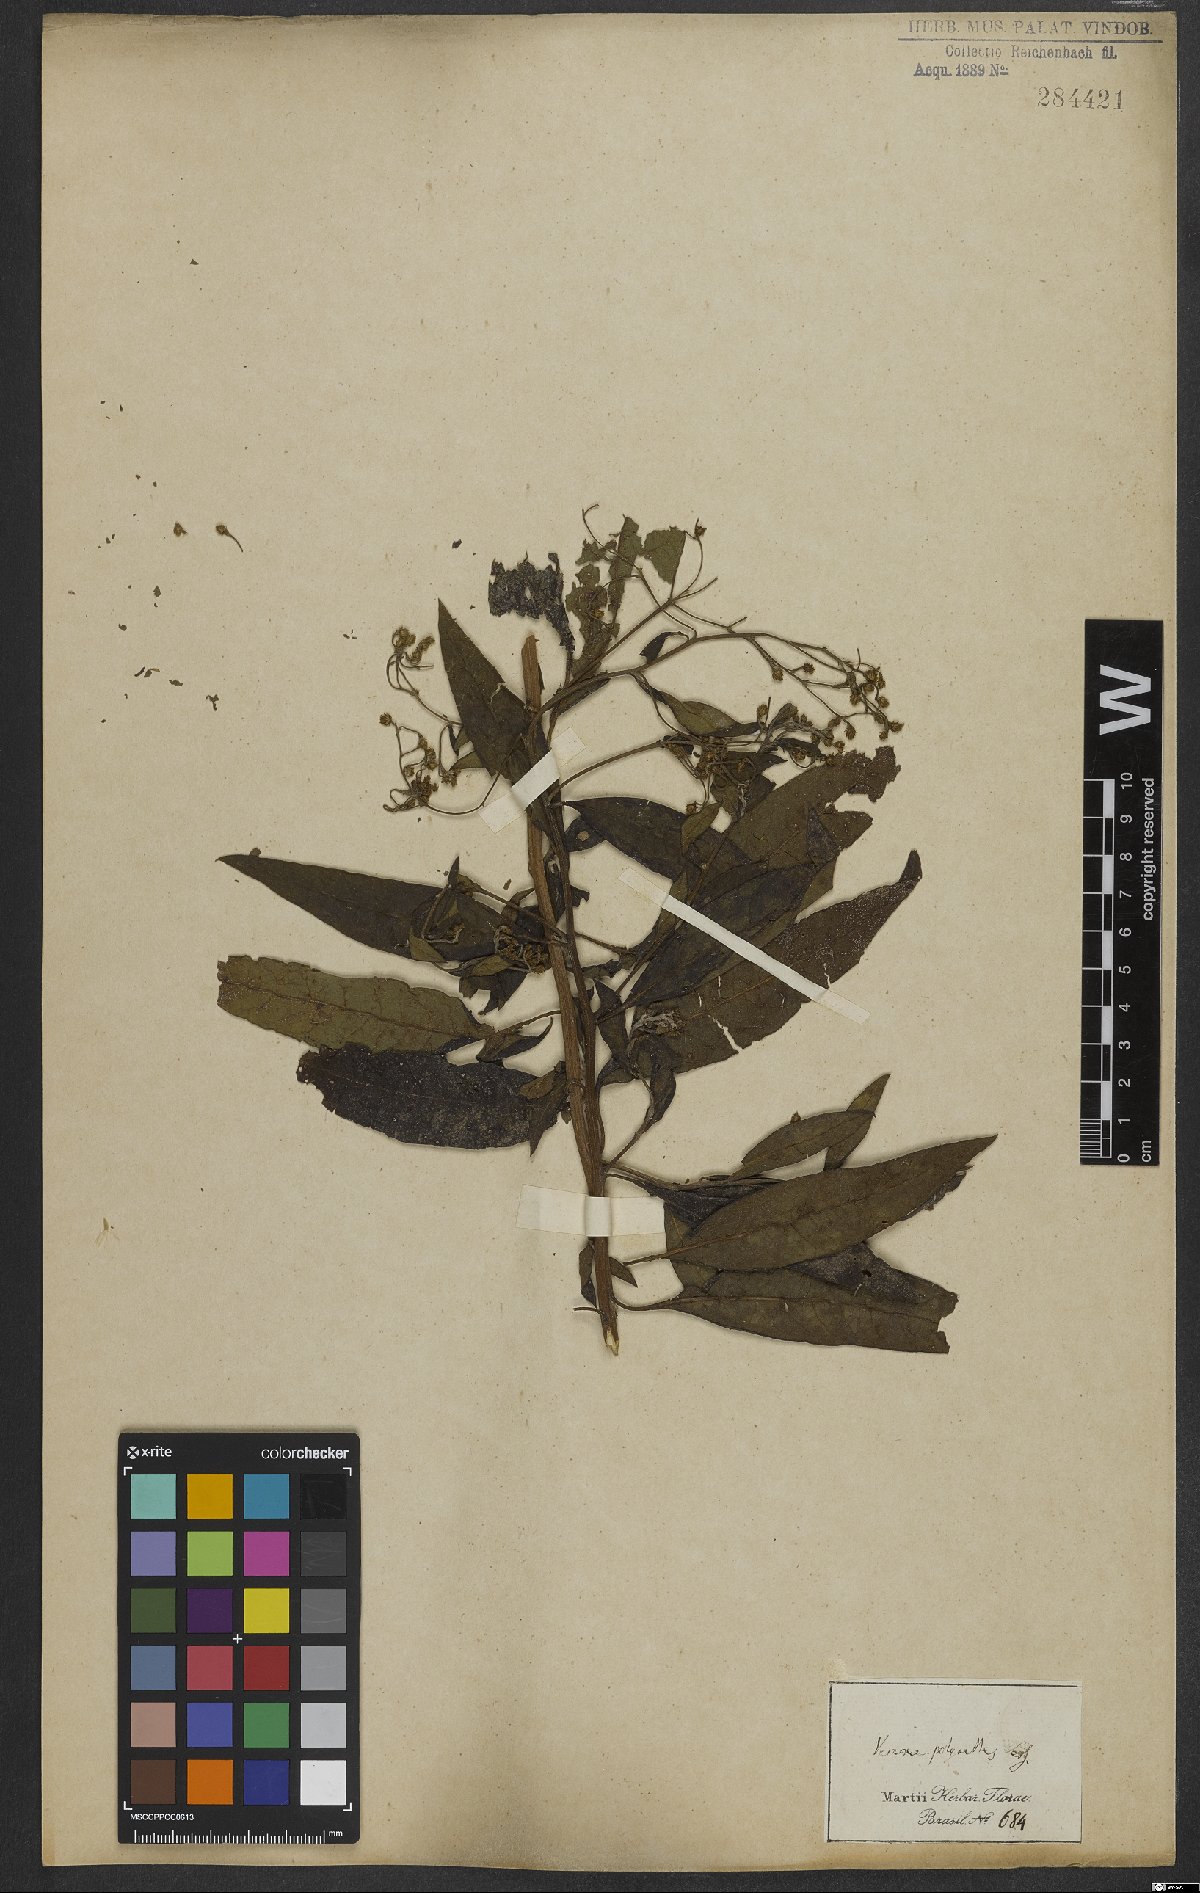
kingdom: Plantae
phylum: Tracheophyta
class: Magnoliopsida
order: Asterales
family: Asteraceae
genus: Vernonanthura
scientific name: Vernonanthura polyanthes
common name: Tree aster
